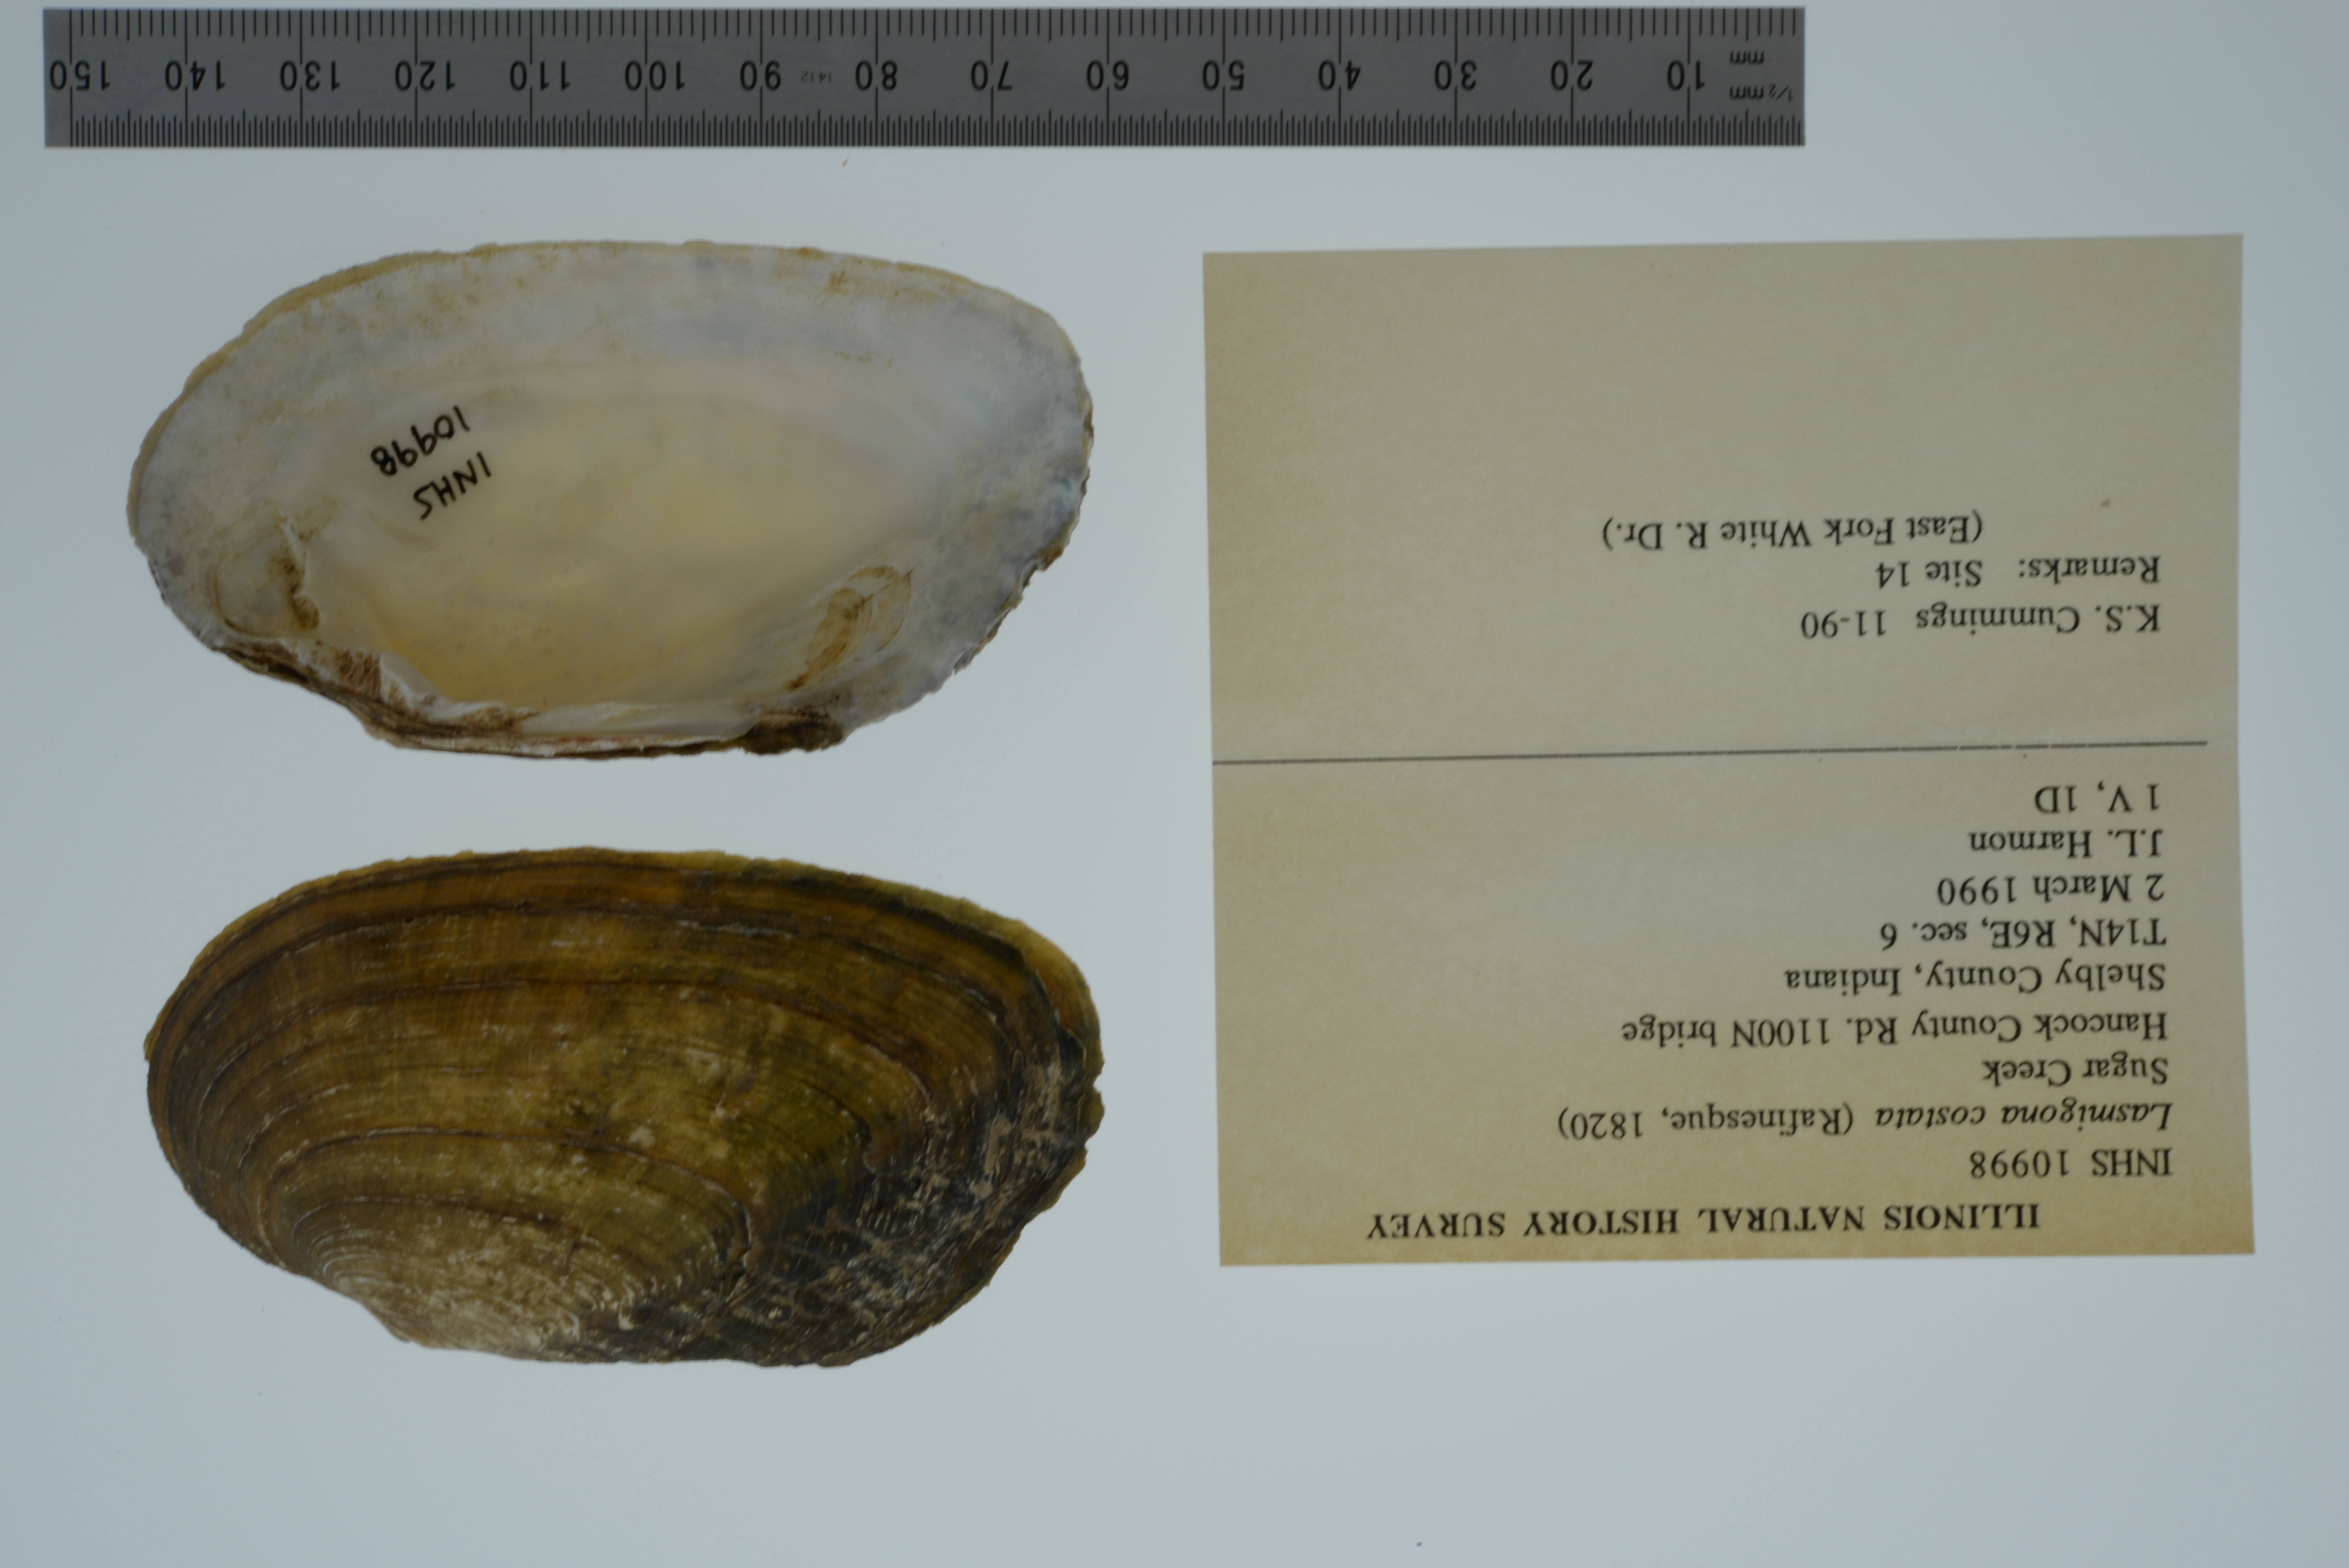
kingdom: Animalia
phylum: Mollusca
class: Bivalvia
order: Unionida
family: Unionidae
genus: Lasmigona
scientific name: Lasmigona costata
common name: Flutedshell
